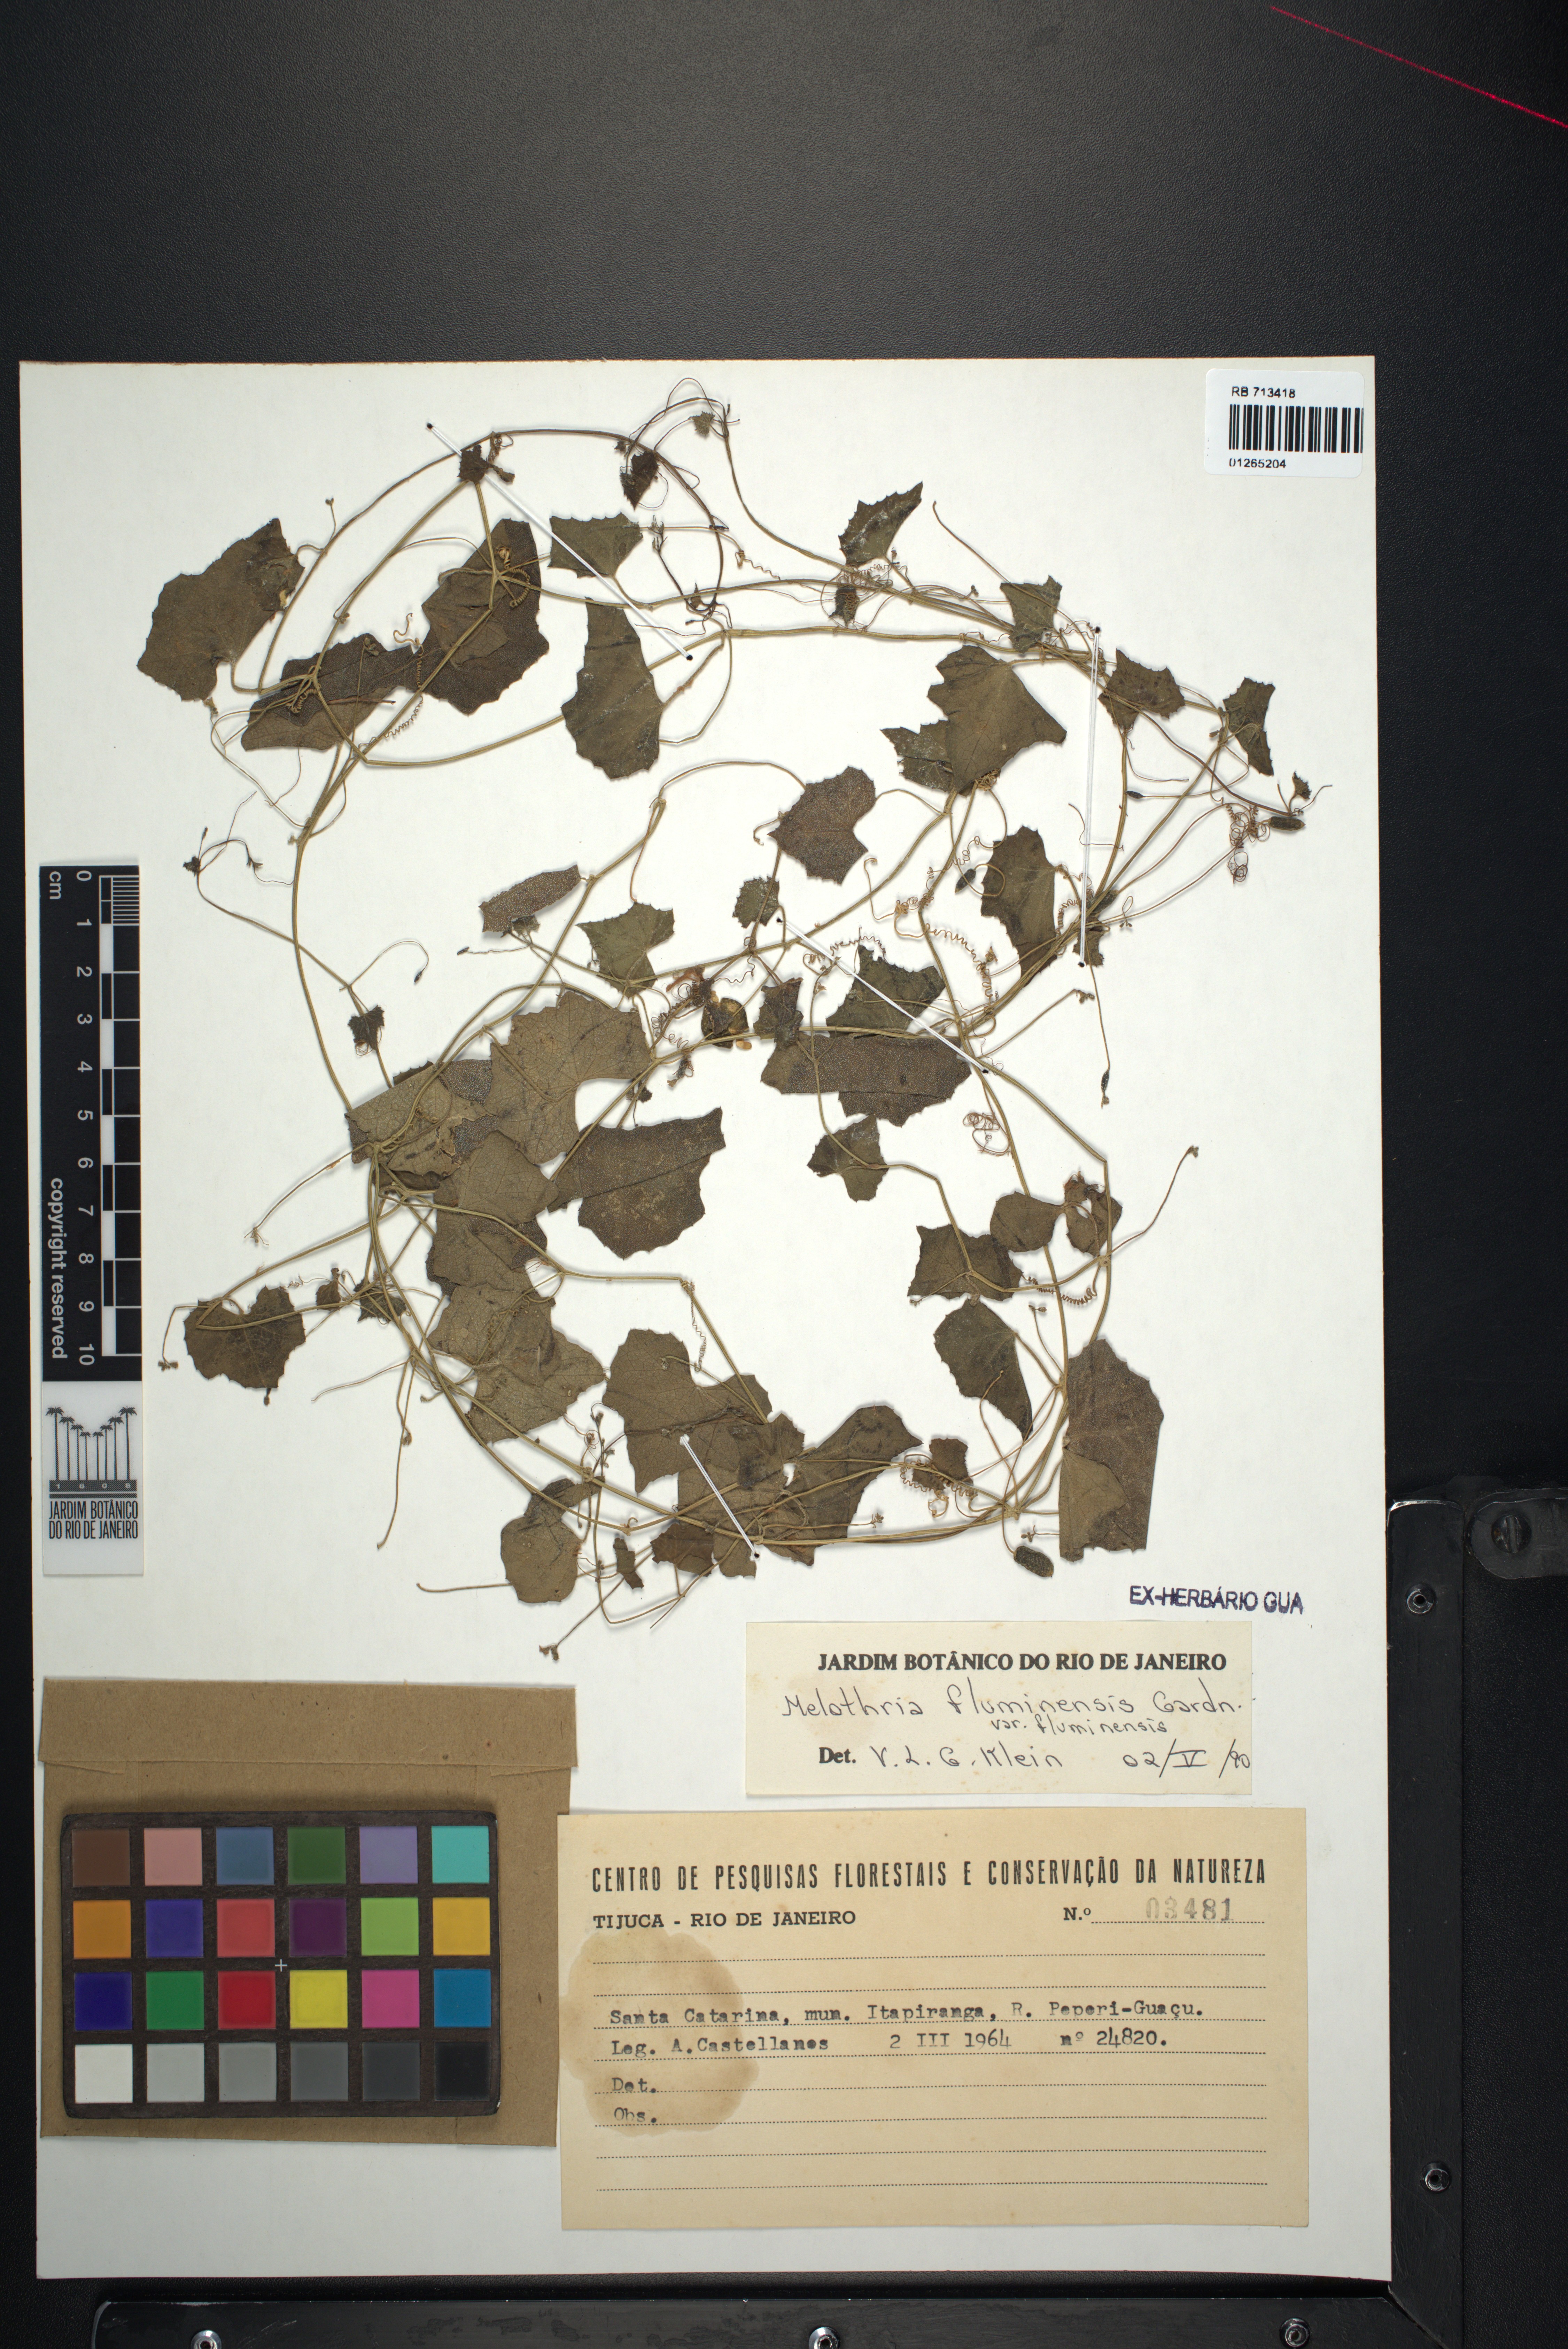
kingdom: Plantae
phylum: Tracheophyta
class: Magnoliopsida
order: Cucurbitales
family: Cucurbitaceae
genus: Melothria
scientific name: Melothria fluminensis
